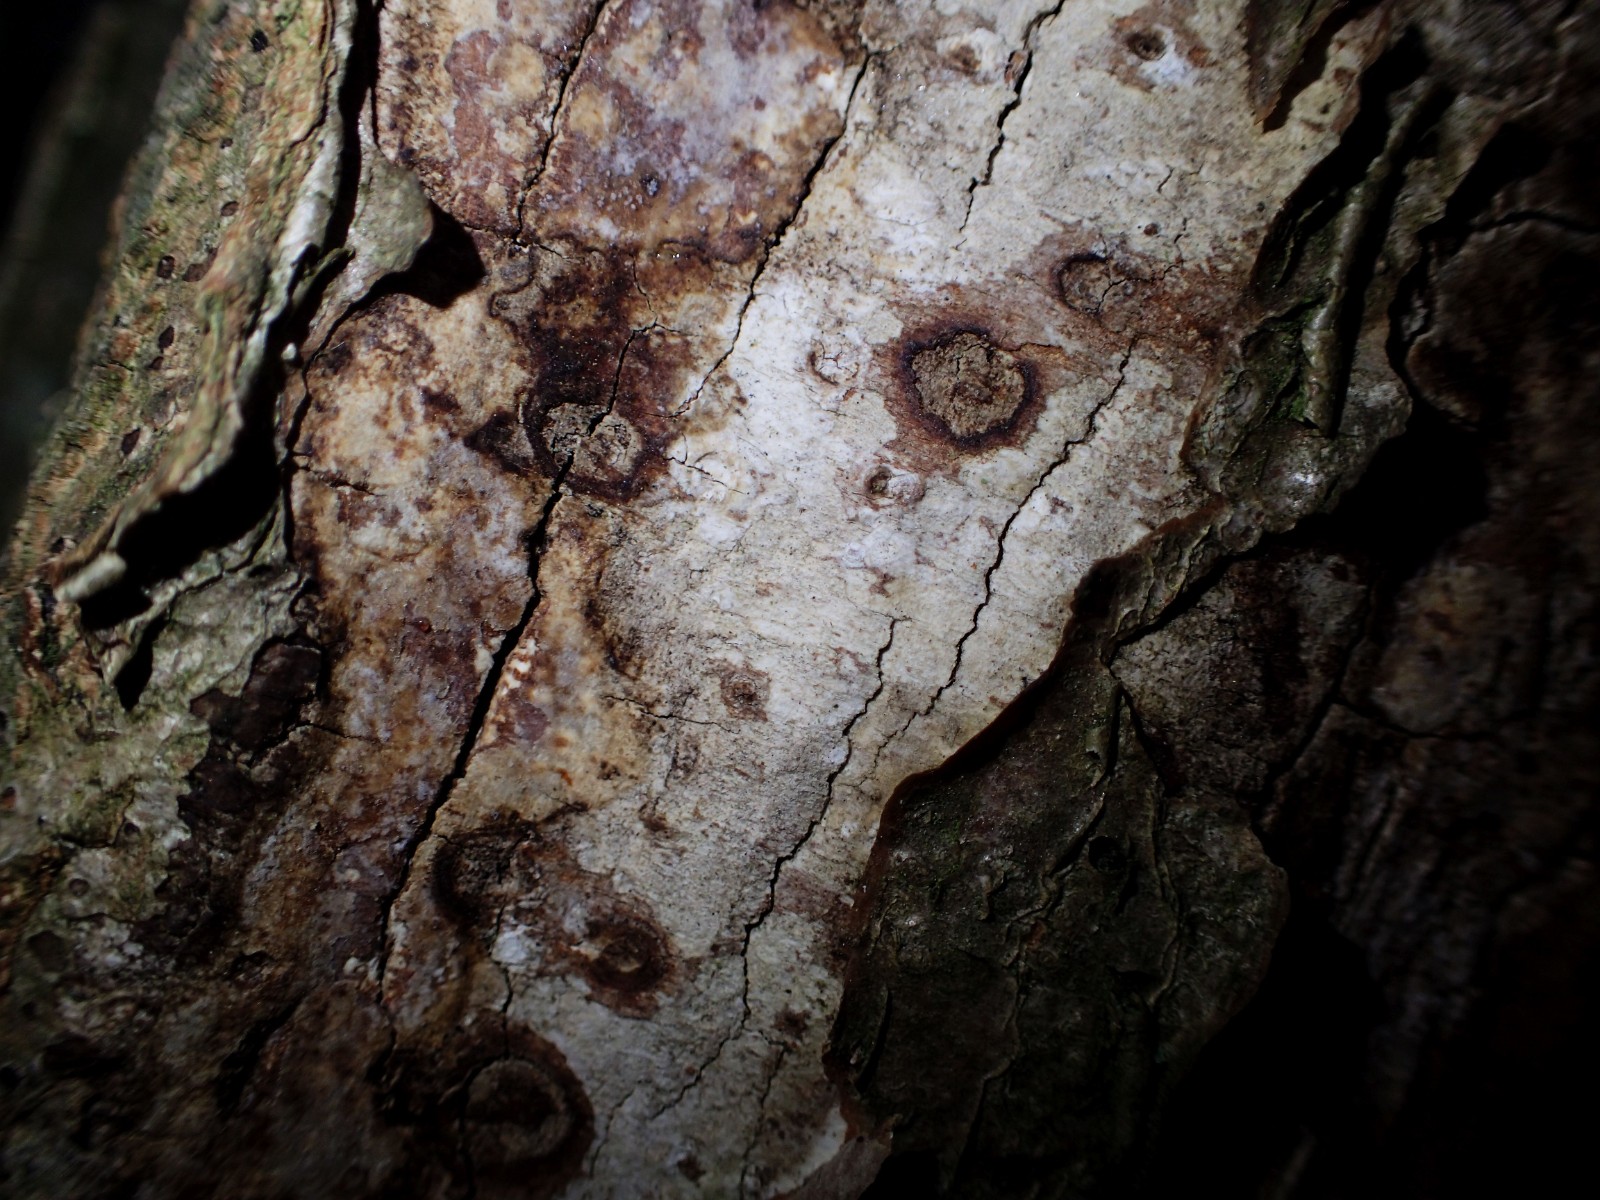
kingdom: Fungi
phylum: Basidiomycota
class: Agaricomycetes
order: Corticiales
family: Vuilleminiaceae
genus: Vuilleminia
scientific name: Vuilleminia coryli
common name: hassel-barksprænger
